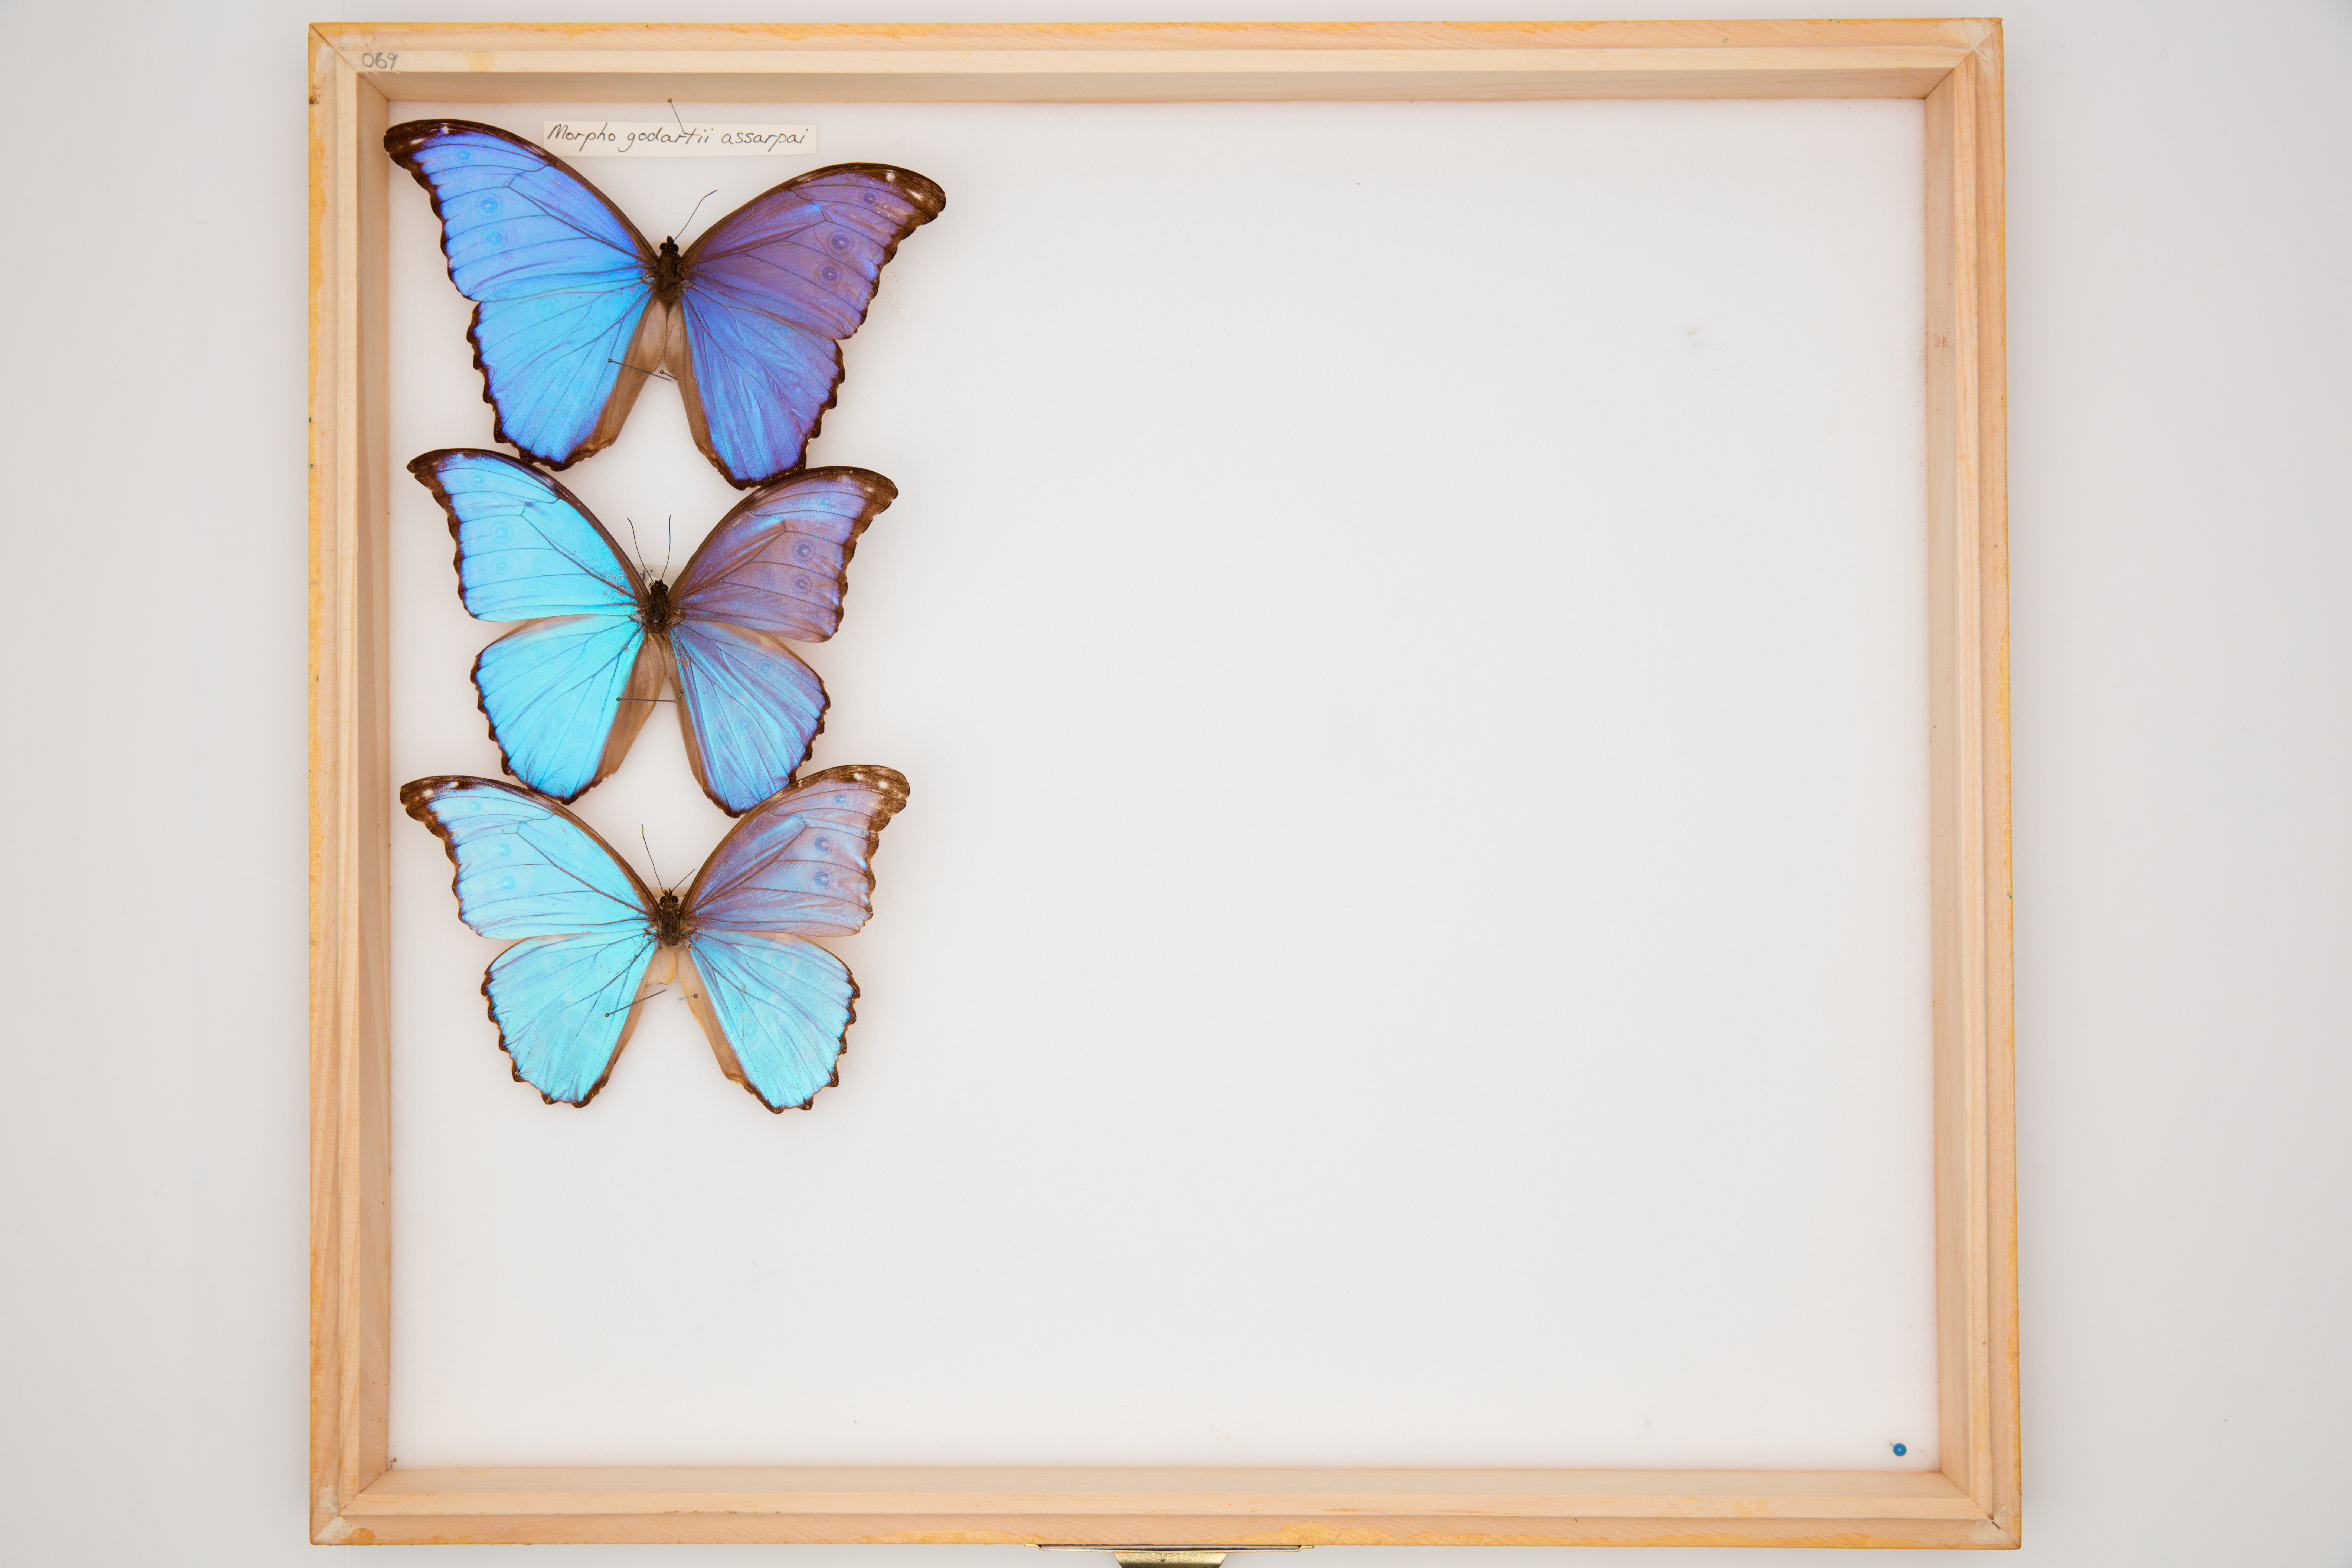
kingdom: Animalia
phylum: Arthropoda
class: Insecta
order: Lepidoptera
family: Nymphalidae
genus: Morpho
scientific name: Morpho godartii
